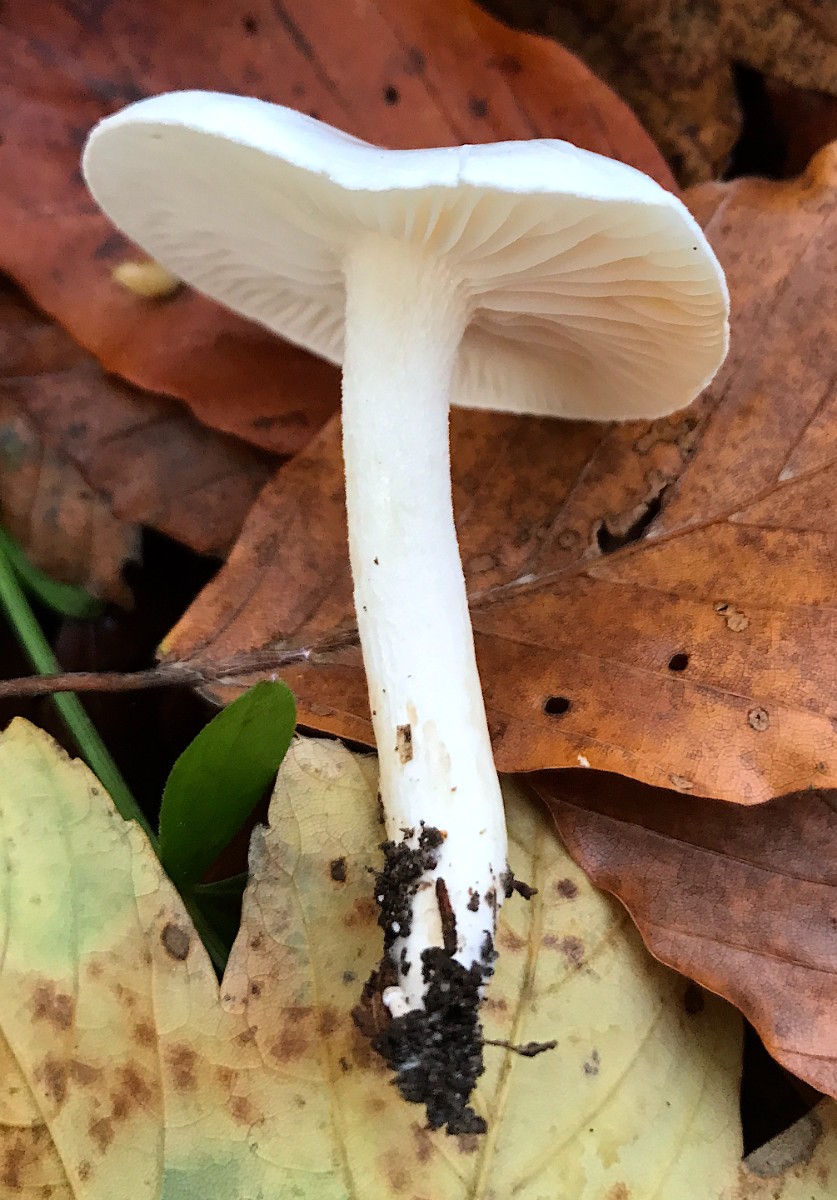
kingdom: Fungi
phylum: Basidiomycota
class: Agaricomycetes
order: Agaricales
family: Hygrophoraceae
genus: Hygrophorus
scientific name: Hygrophorus eburneus
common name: elfenbens-sneglehat
